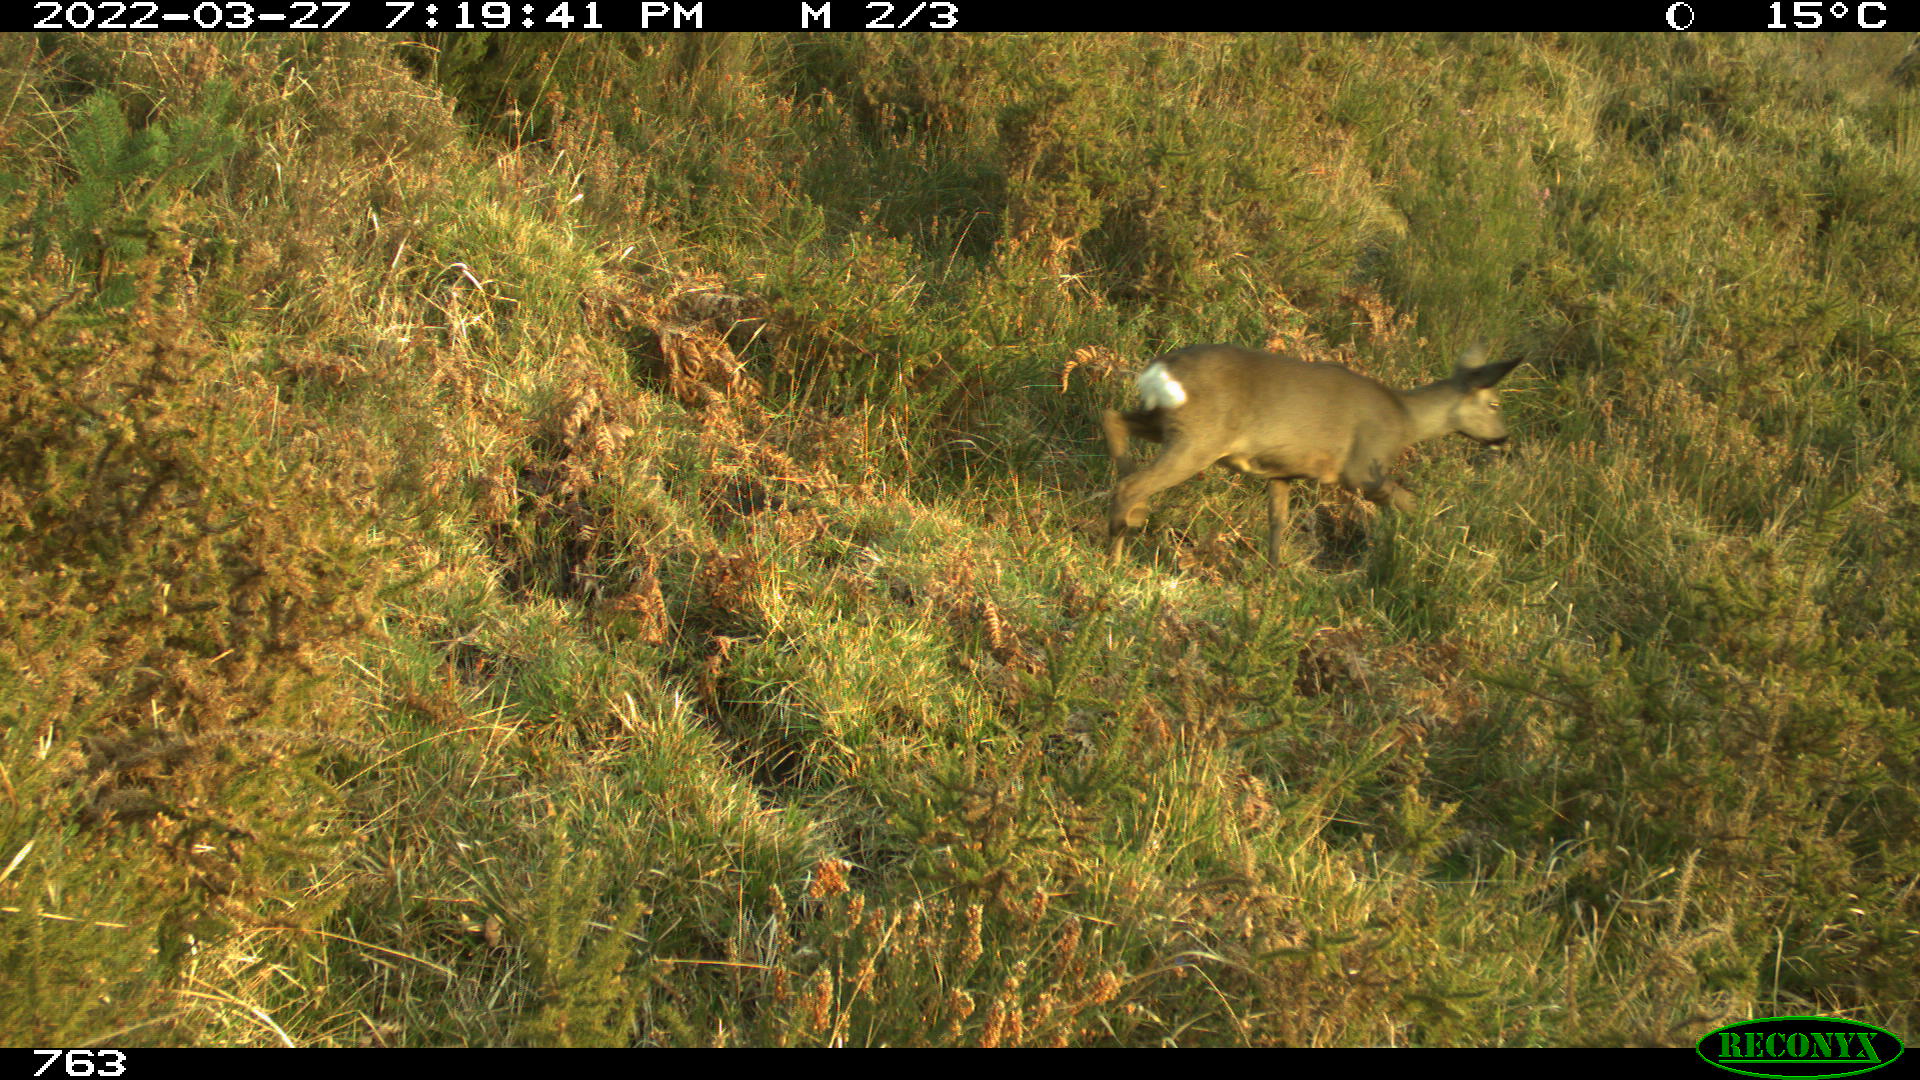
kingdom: Animalia
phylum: Chordata
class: Mammalia
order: Artiodactyla
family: Cervidae
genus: Capreolus
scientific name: Capreolus capreolus
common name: Western roe deer
